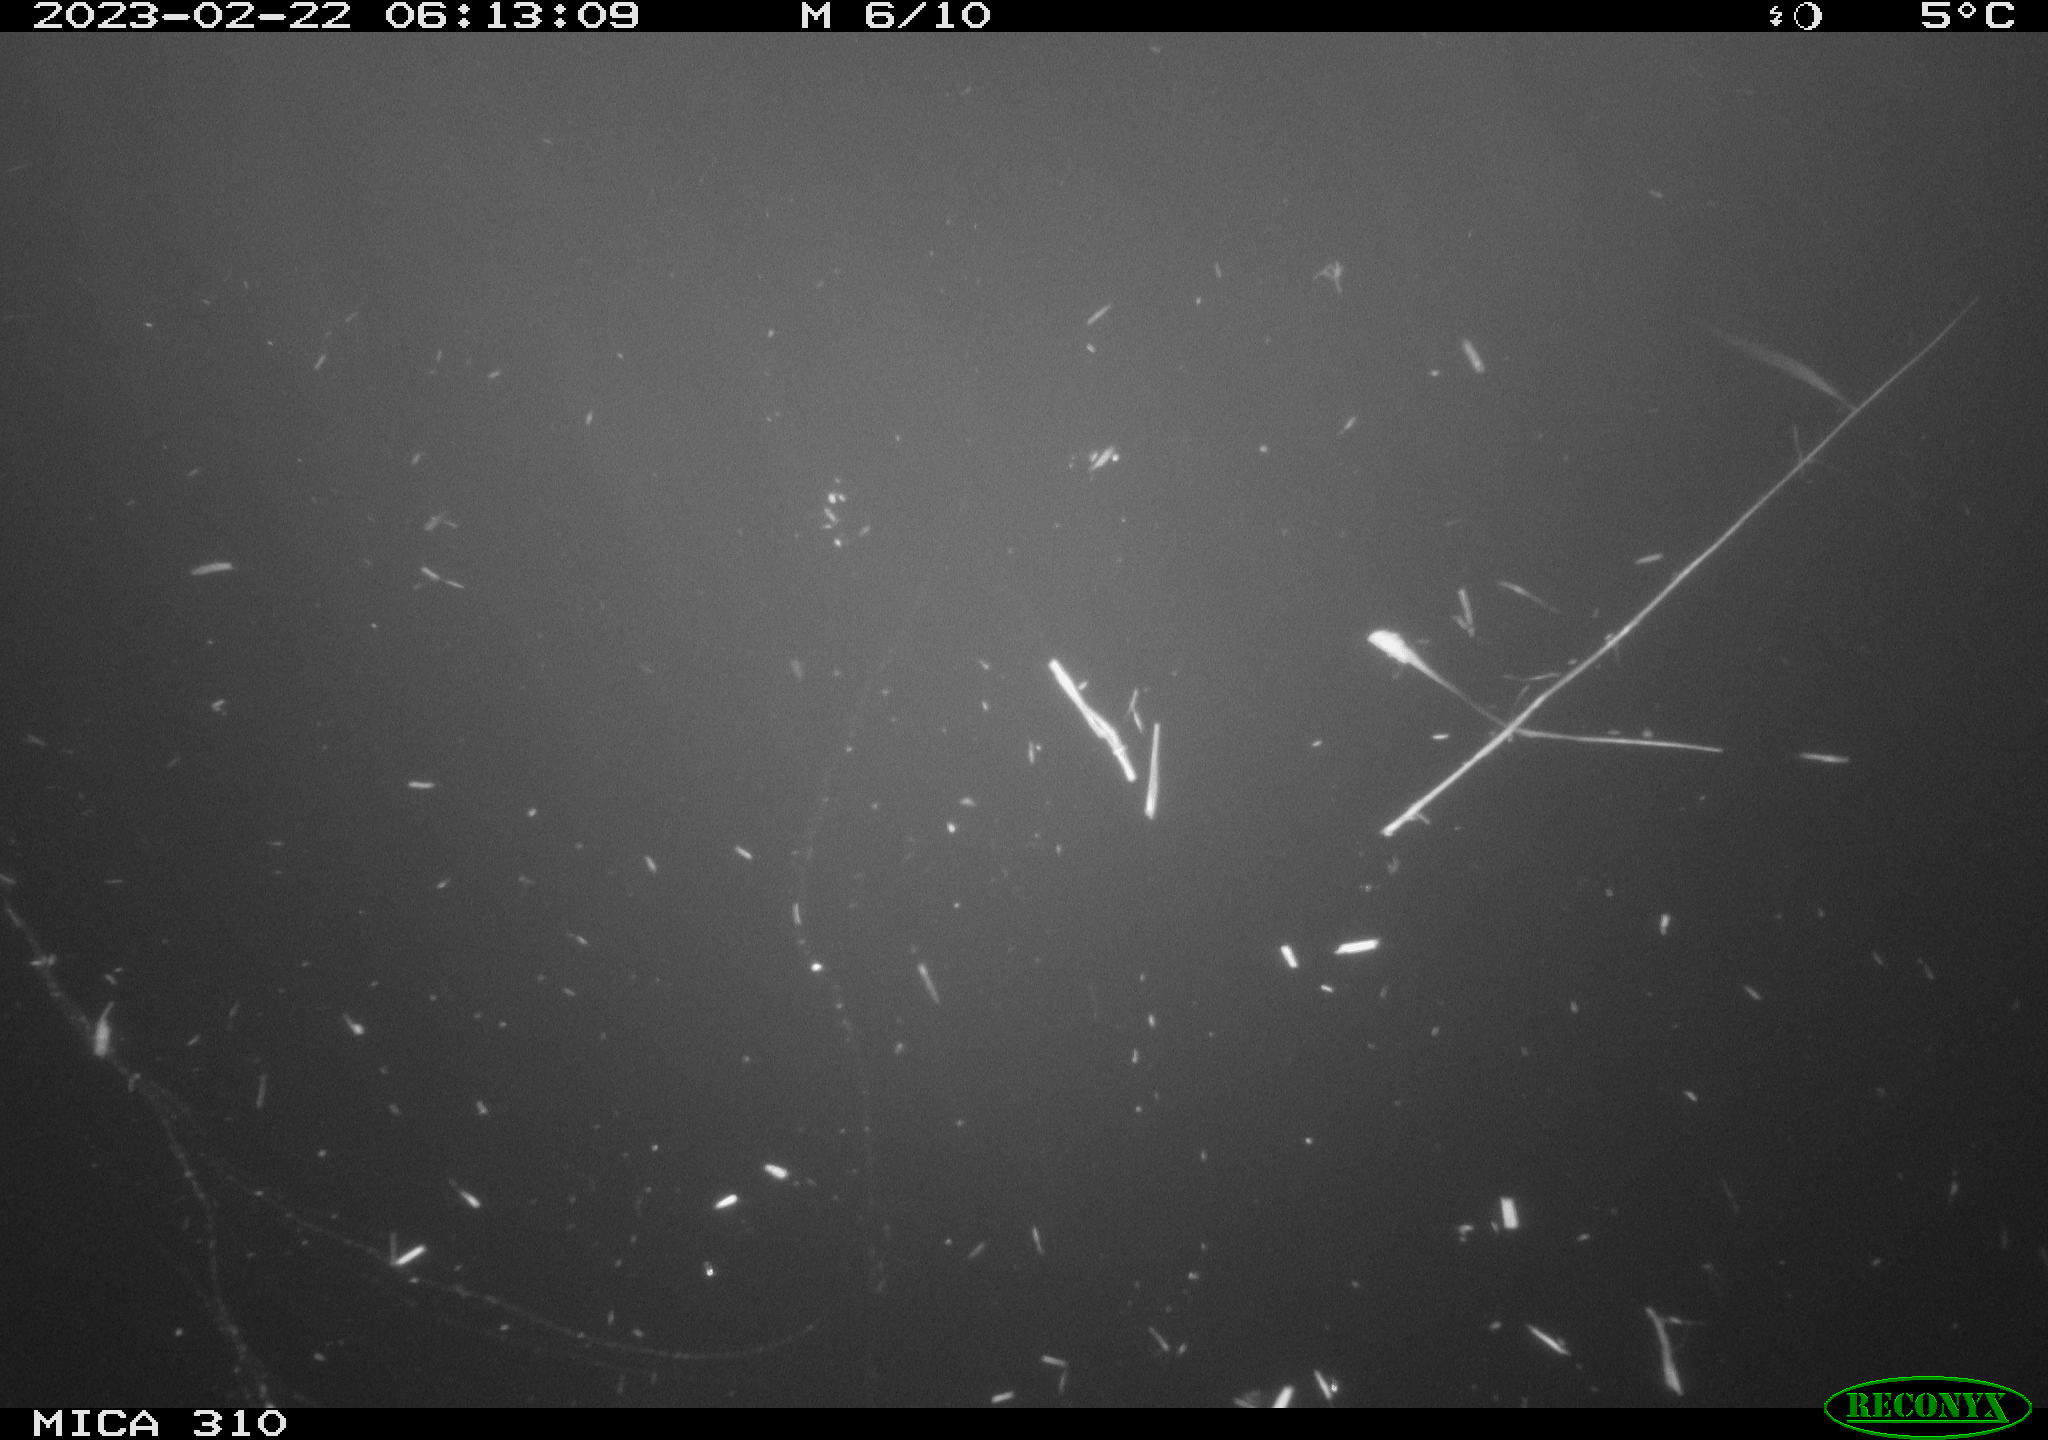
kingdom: Animalia
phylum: Chordata
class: Mammalia
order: Rodentia
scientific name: Rodentia
